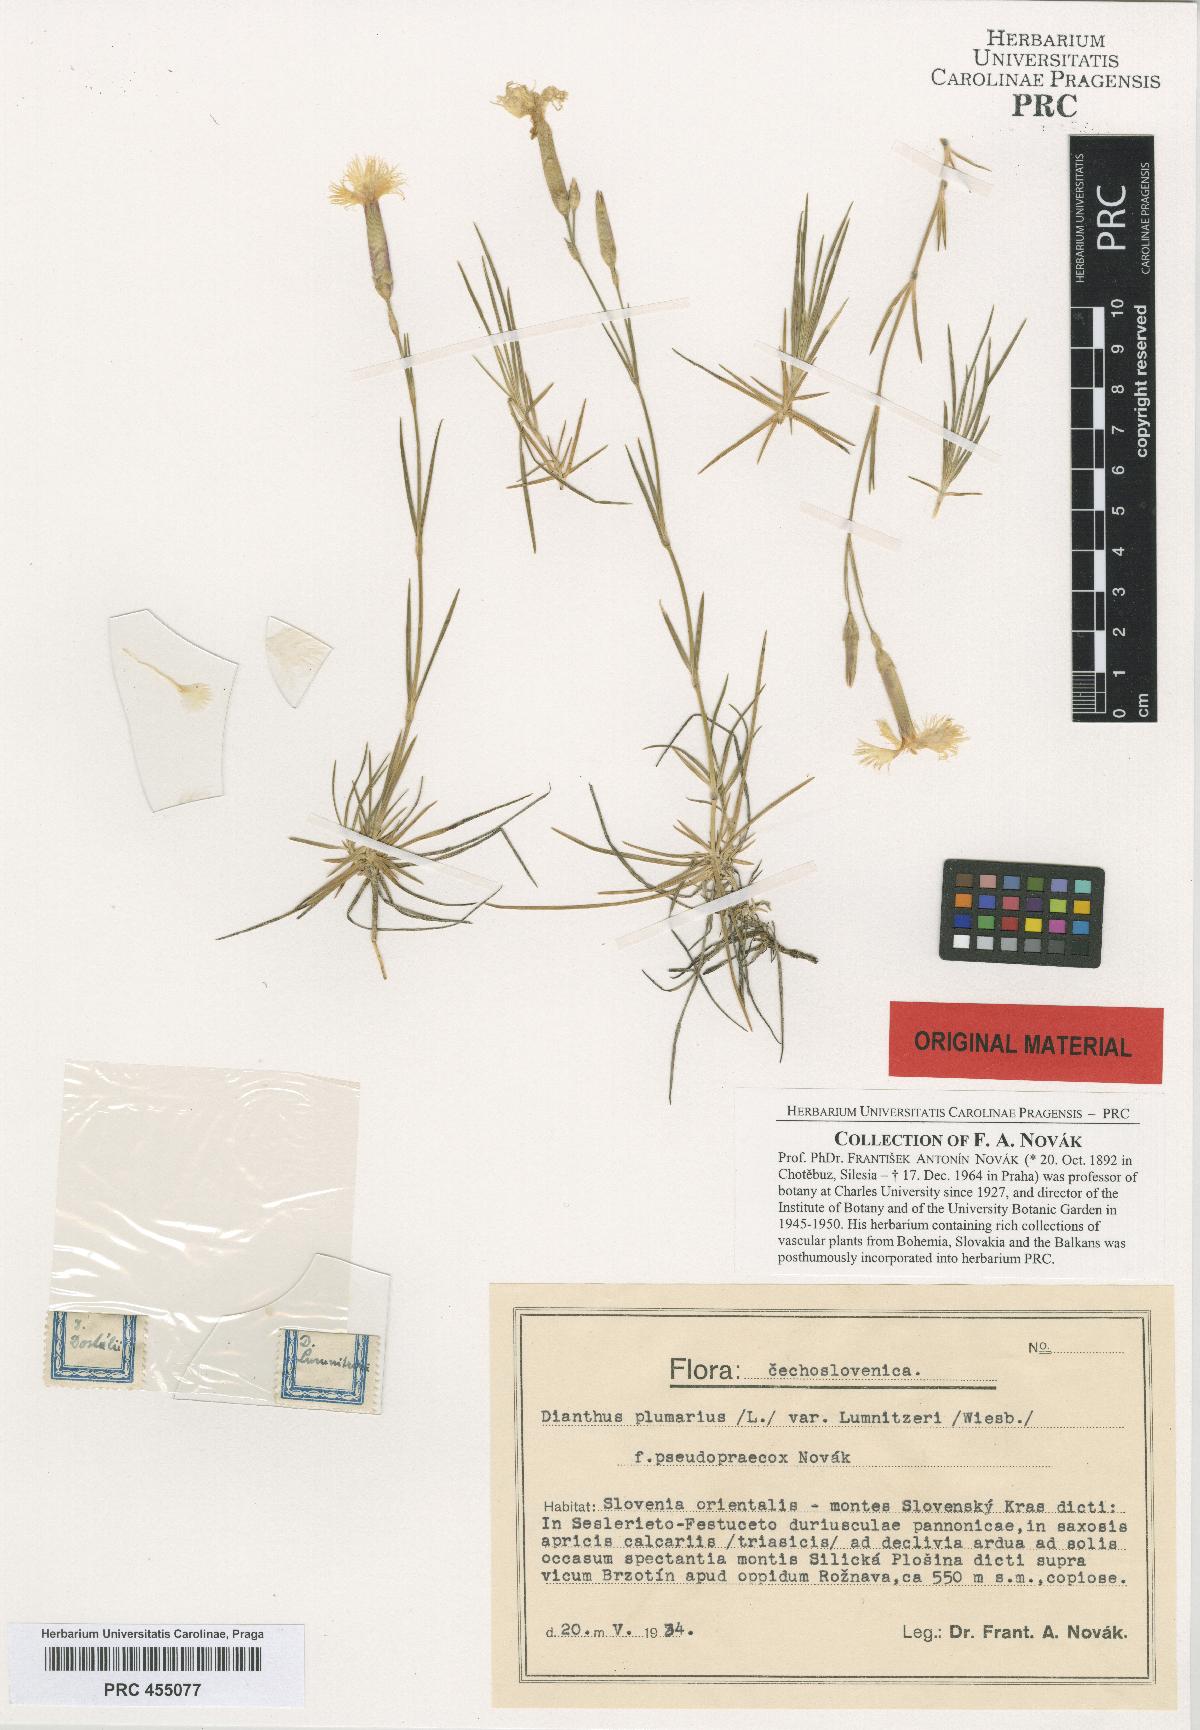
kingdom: Plantae
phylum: Tracheophyta
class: Magnoliopsida
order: Caryophyllales
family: Caryophyllaceae
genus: Dianthus
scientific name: Dianthus praecox
